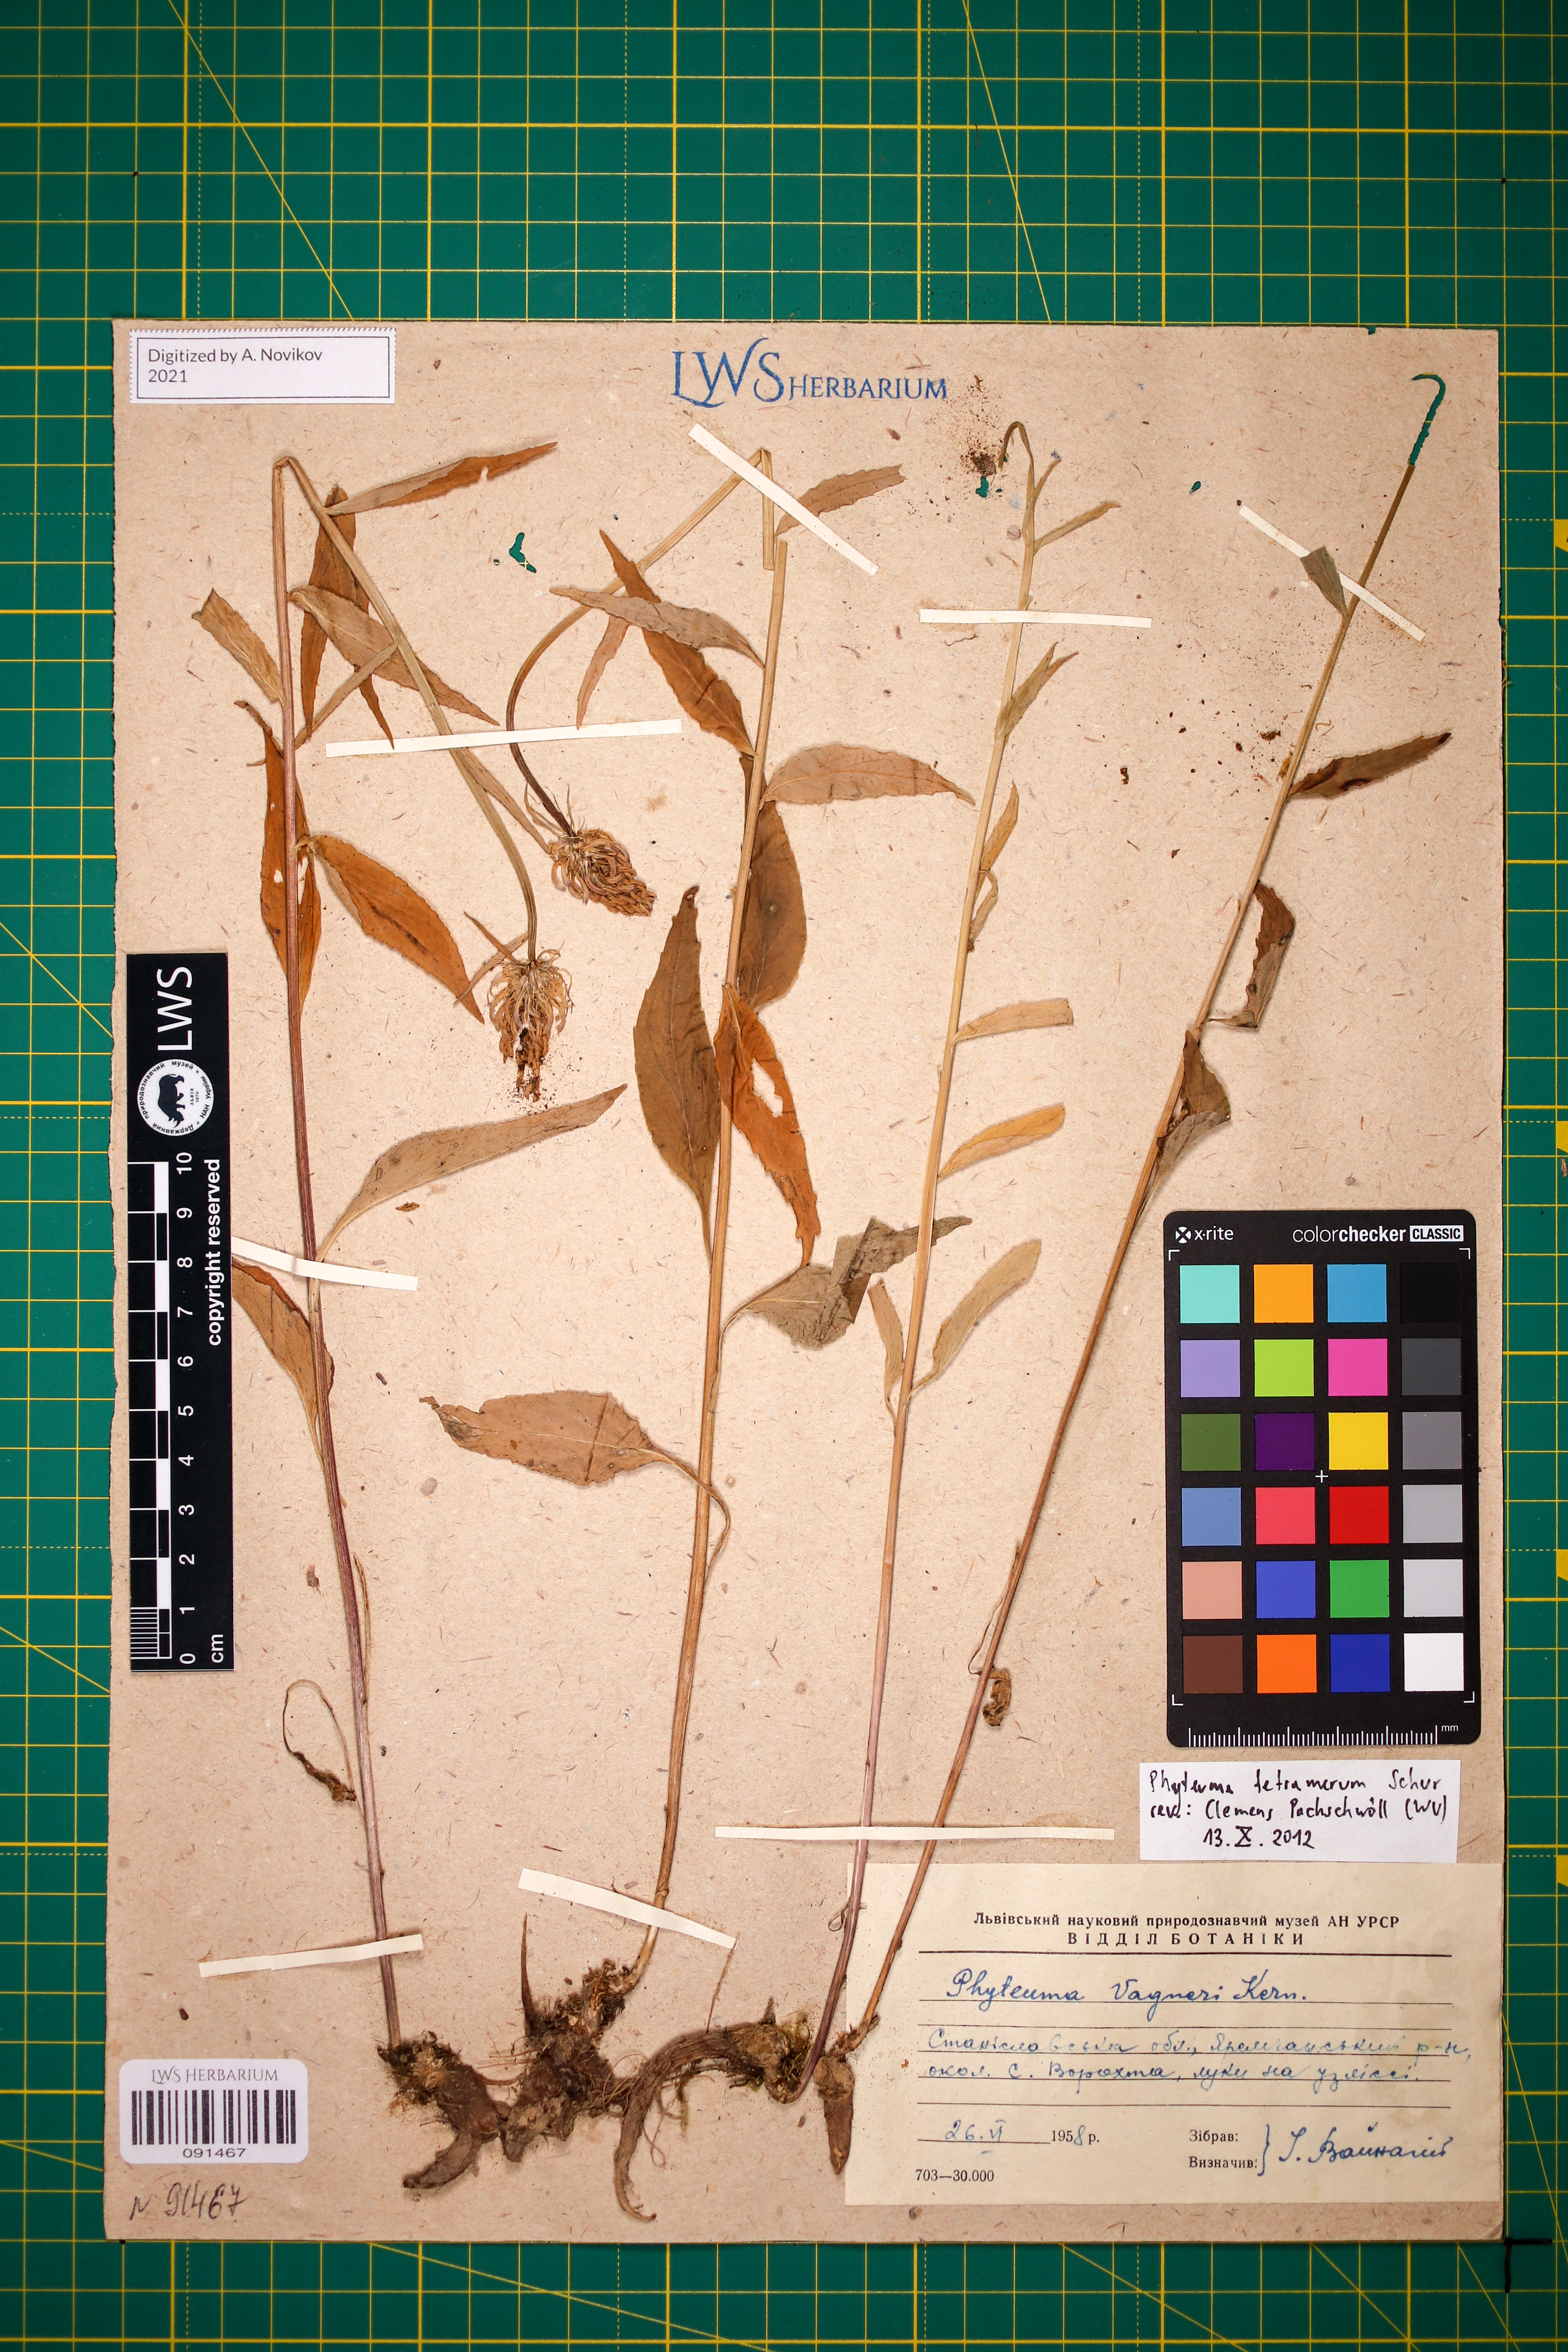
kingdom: Plantae
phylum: Tracheophyta
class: Magnoliopsida
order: Asterales
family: Campanulaceae
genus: Phyteuma
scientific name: Phyteuma tetramerum
